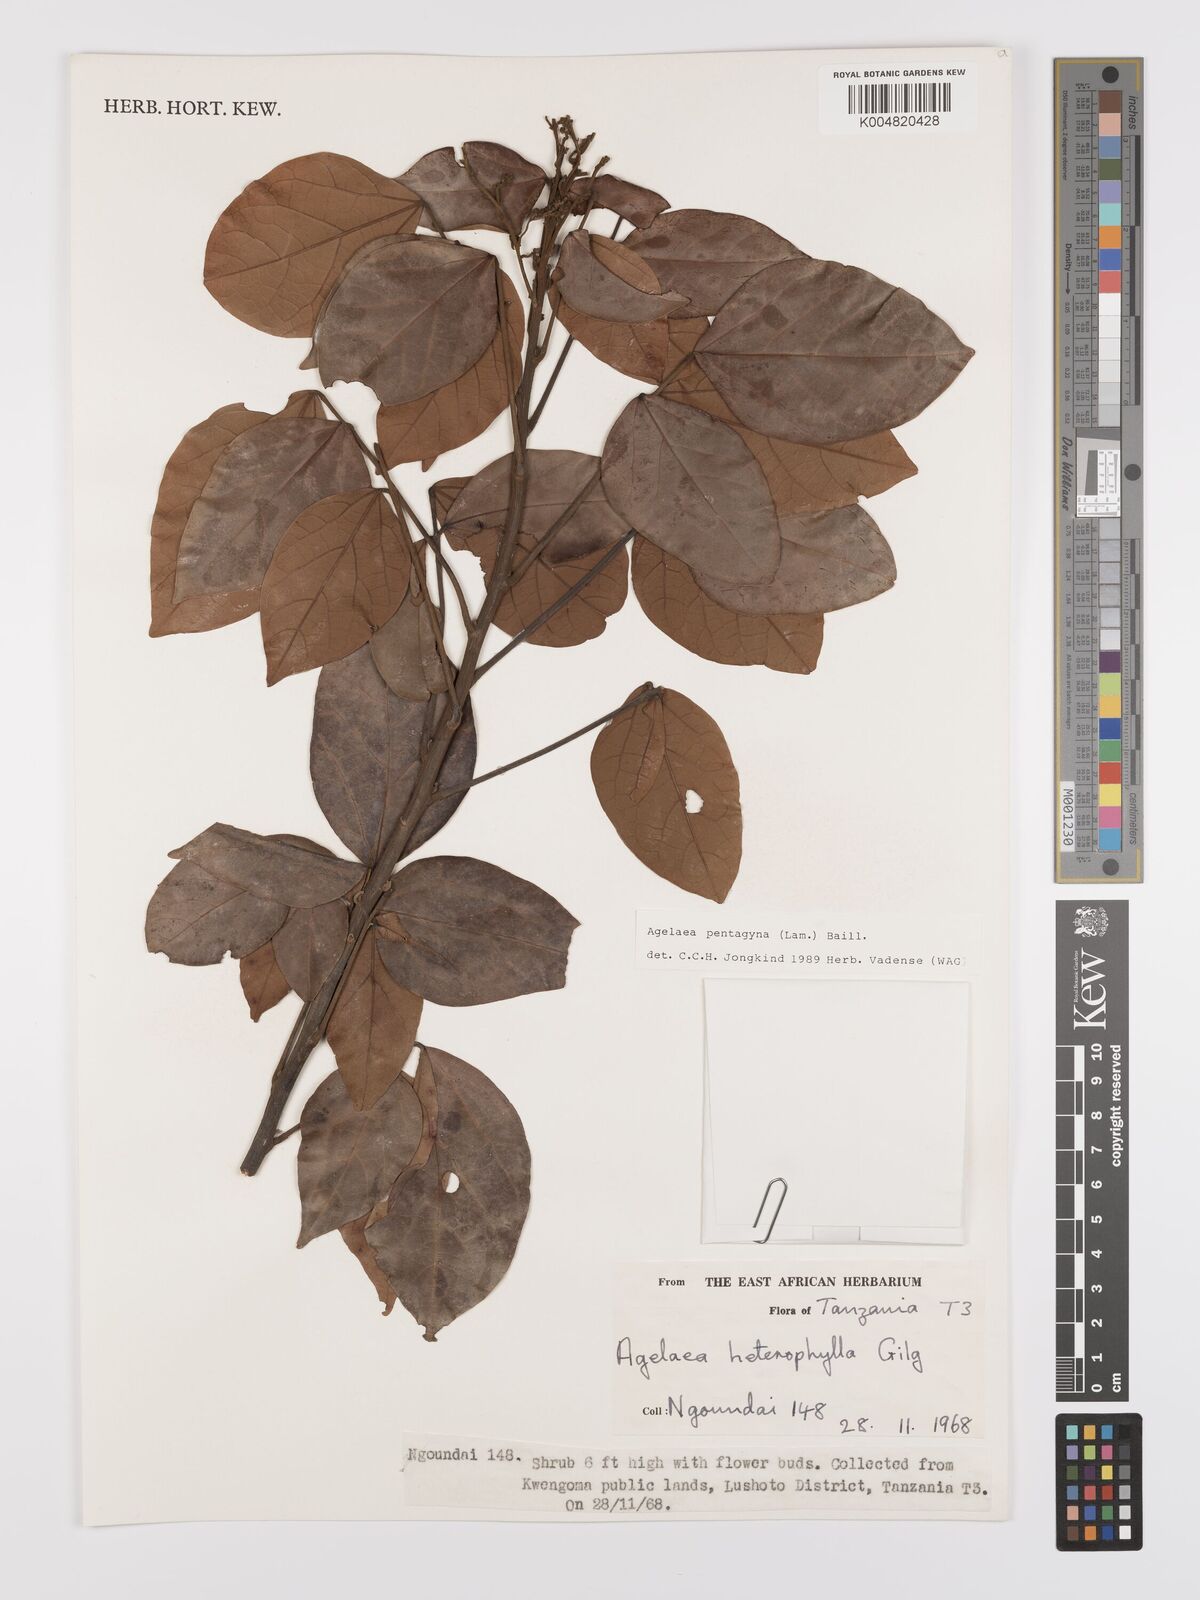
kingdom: Plantae
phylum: Tracheophyta
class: Magnoliopsida
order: Oxalidales
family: Connaraceae
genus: Agelaea
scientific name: Agelaea pentagyna
